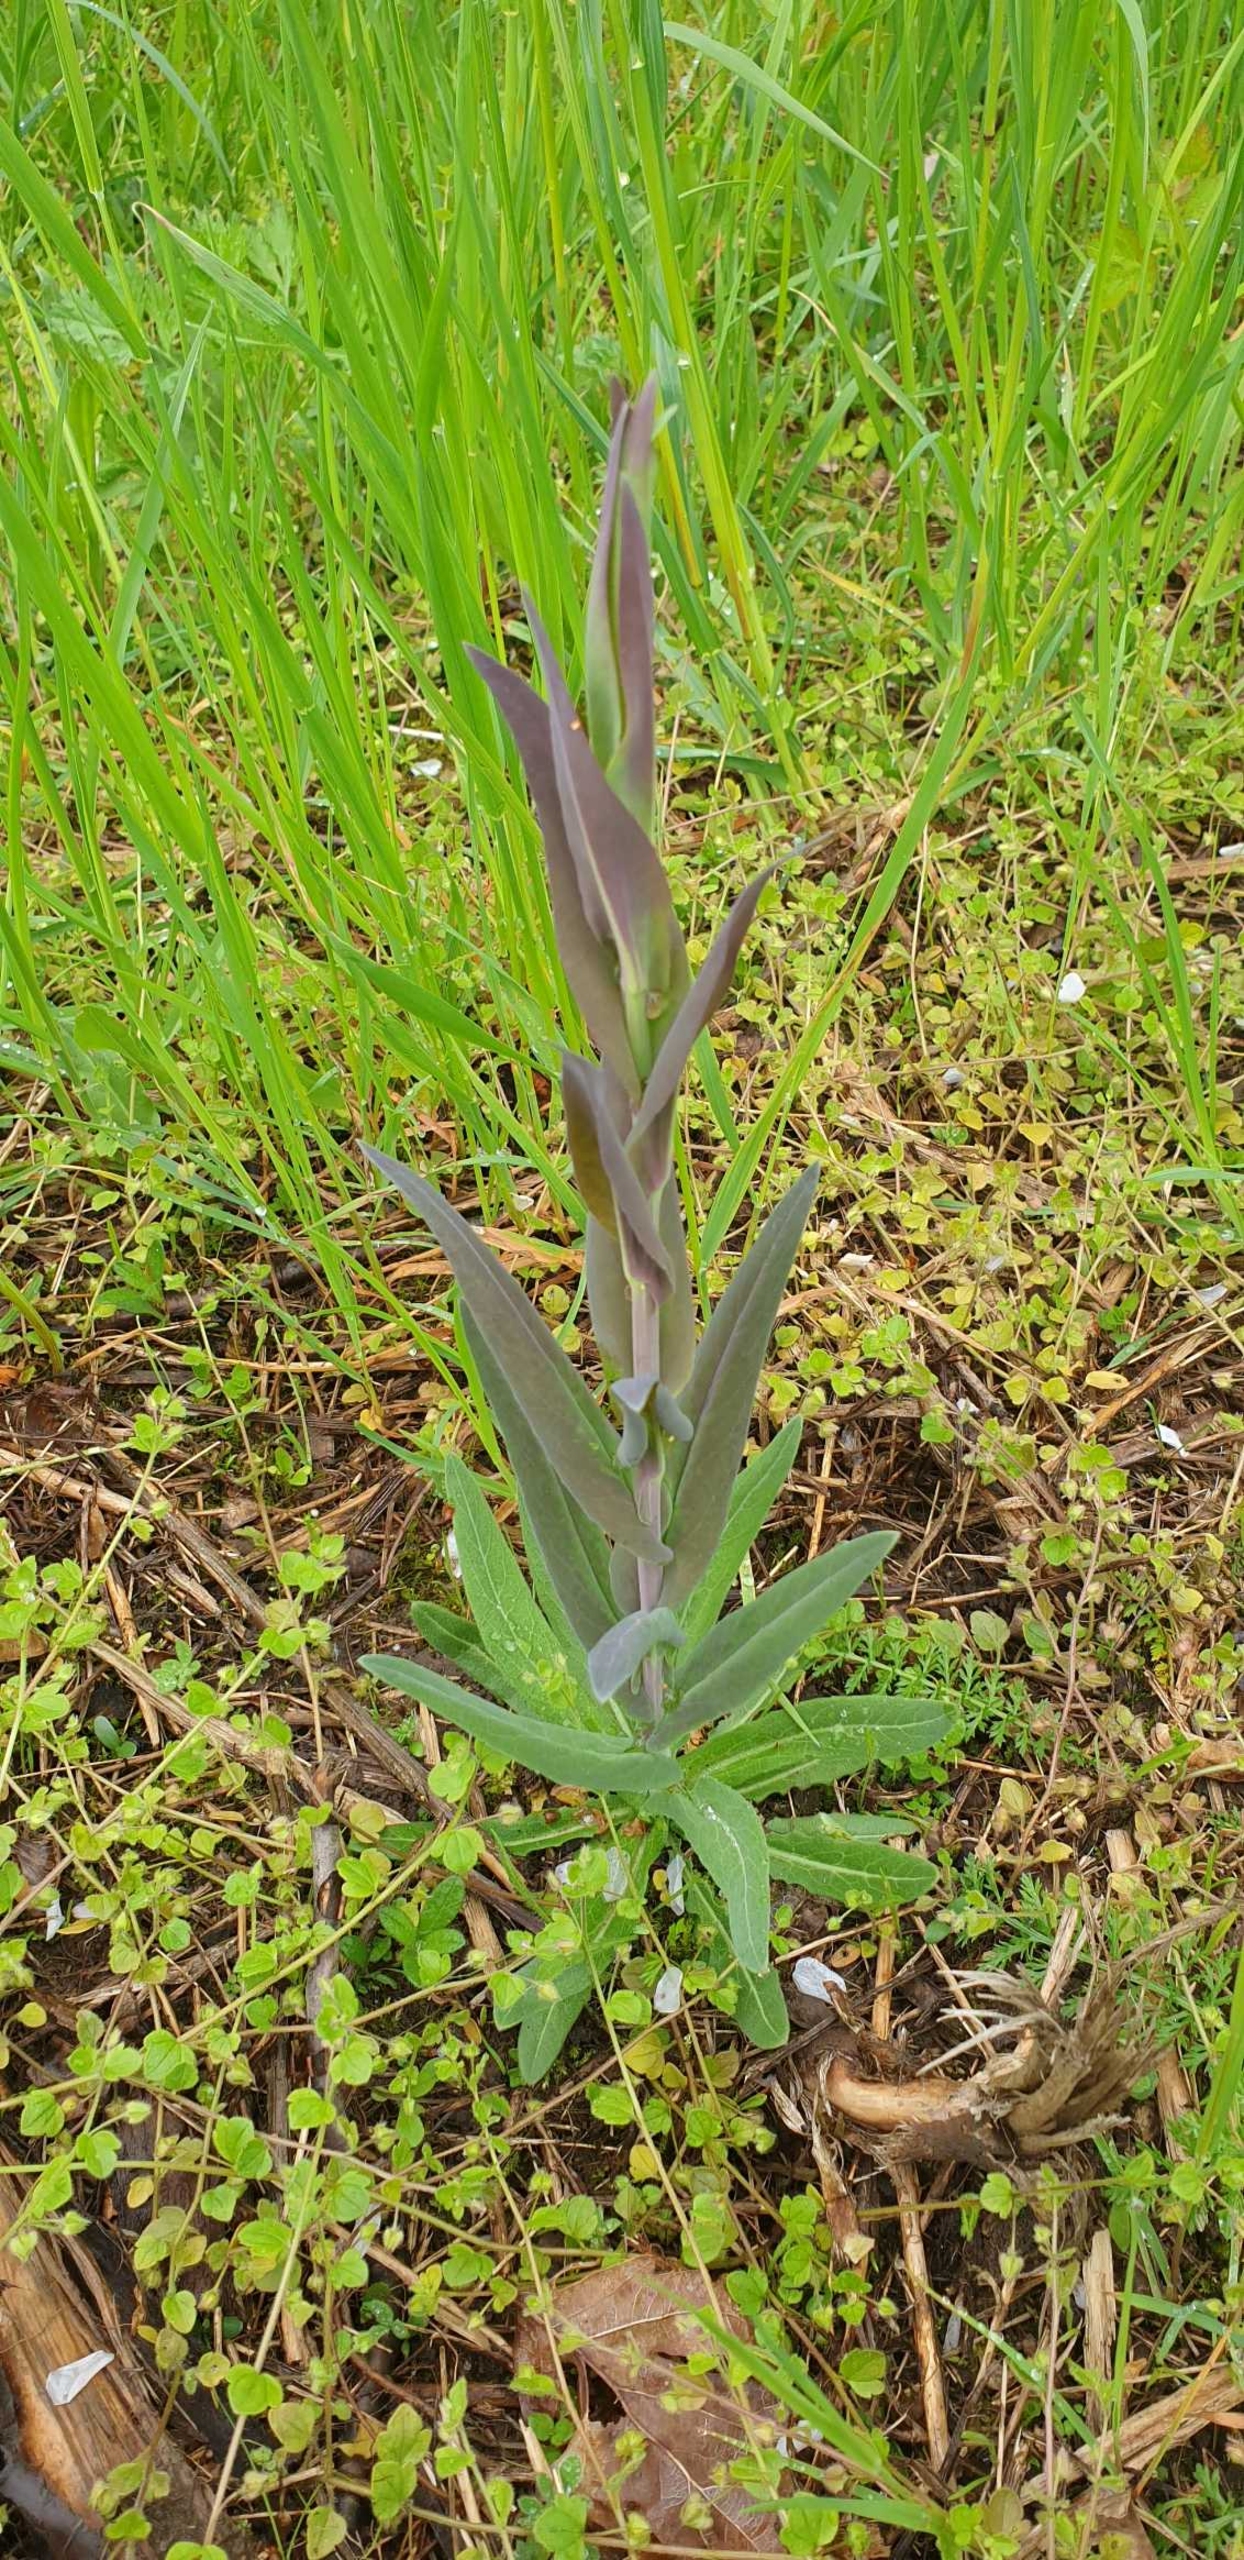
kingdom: Plantae
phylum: Tracheophyta
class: Magnoliopsida
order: Brassicales
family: Brassicaceae
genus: Turritis
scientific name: Turritis glabra
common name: Tårnurt
